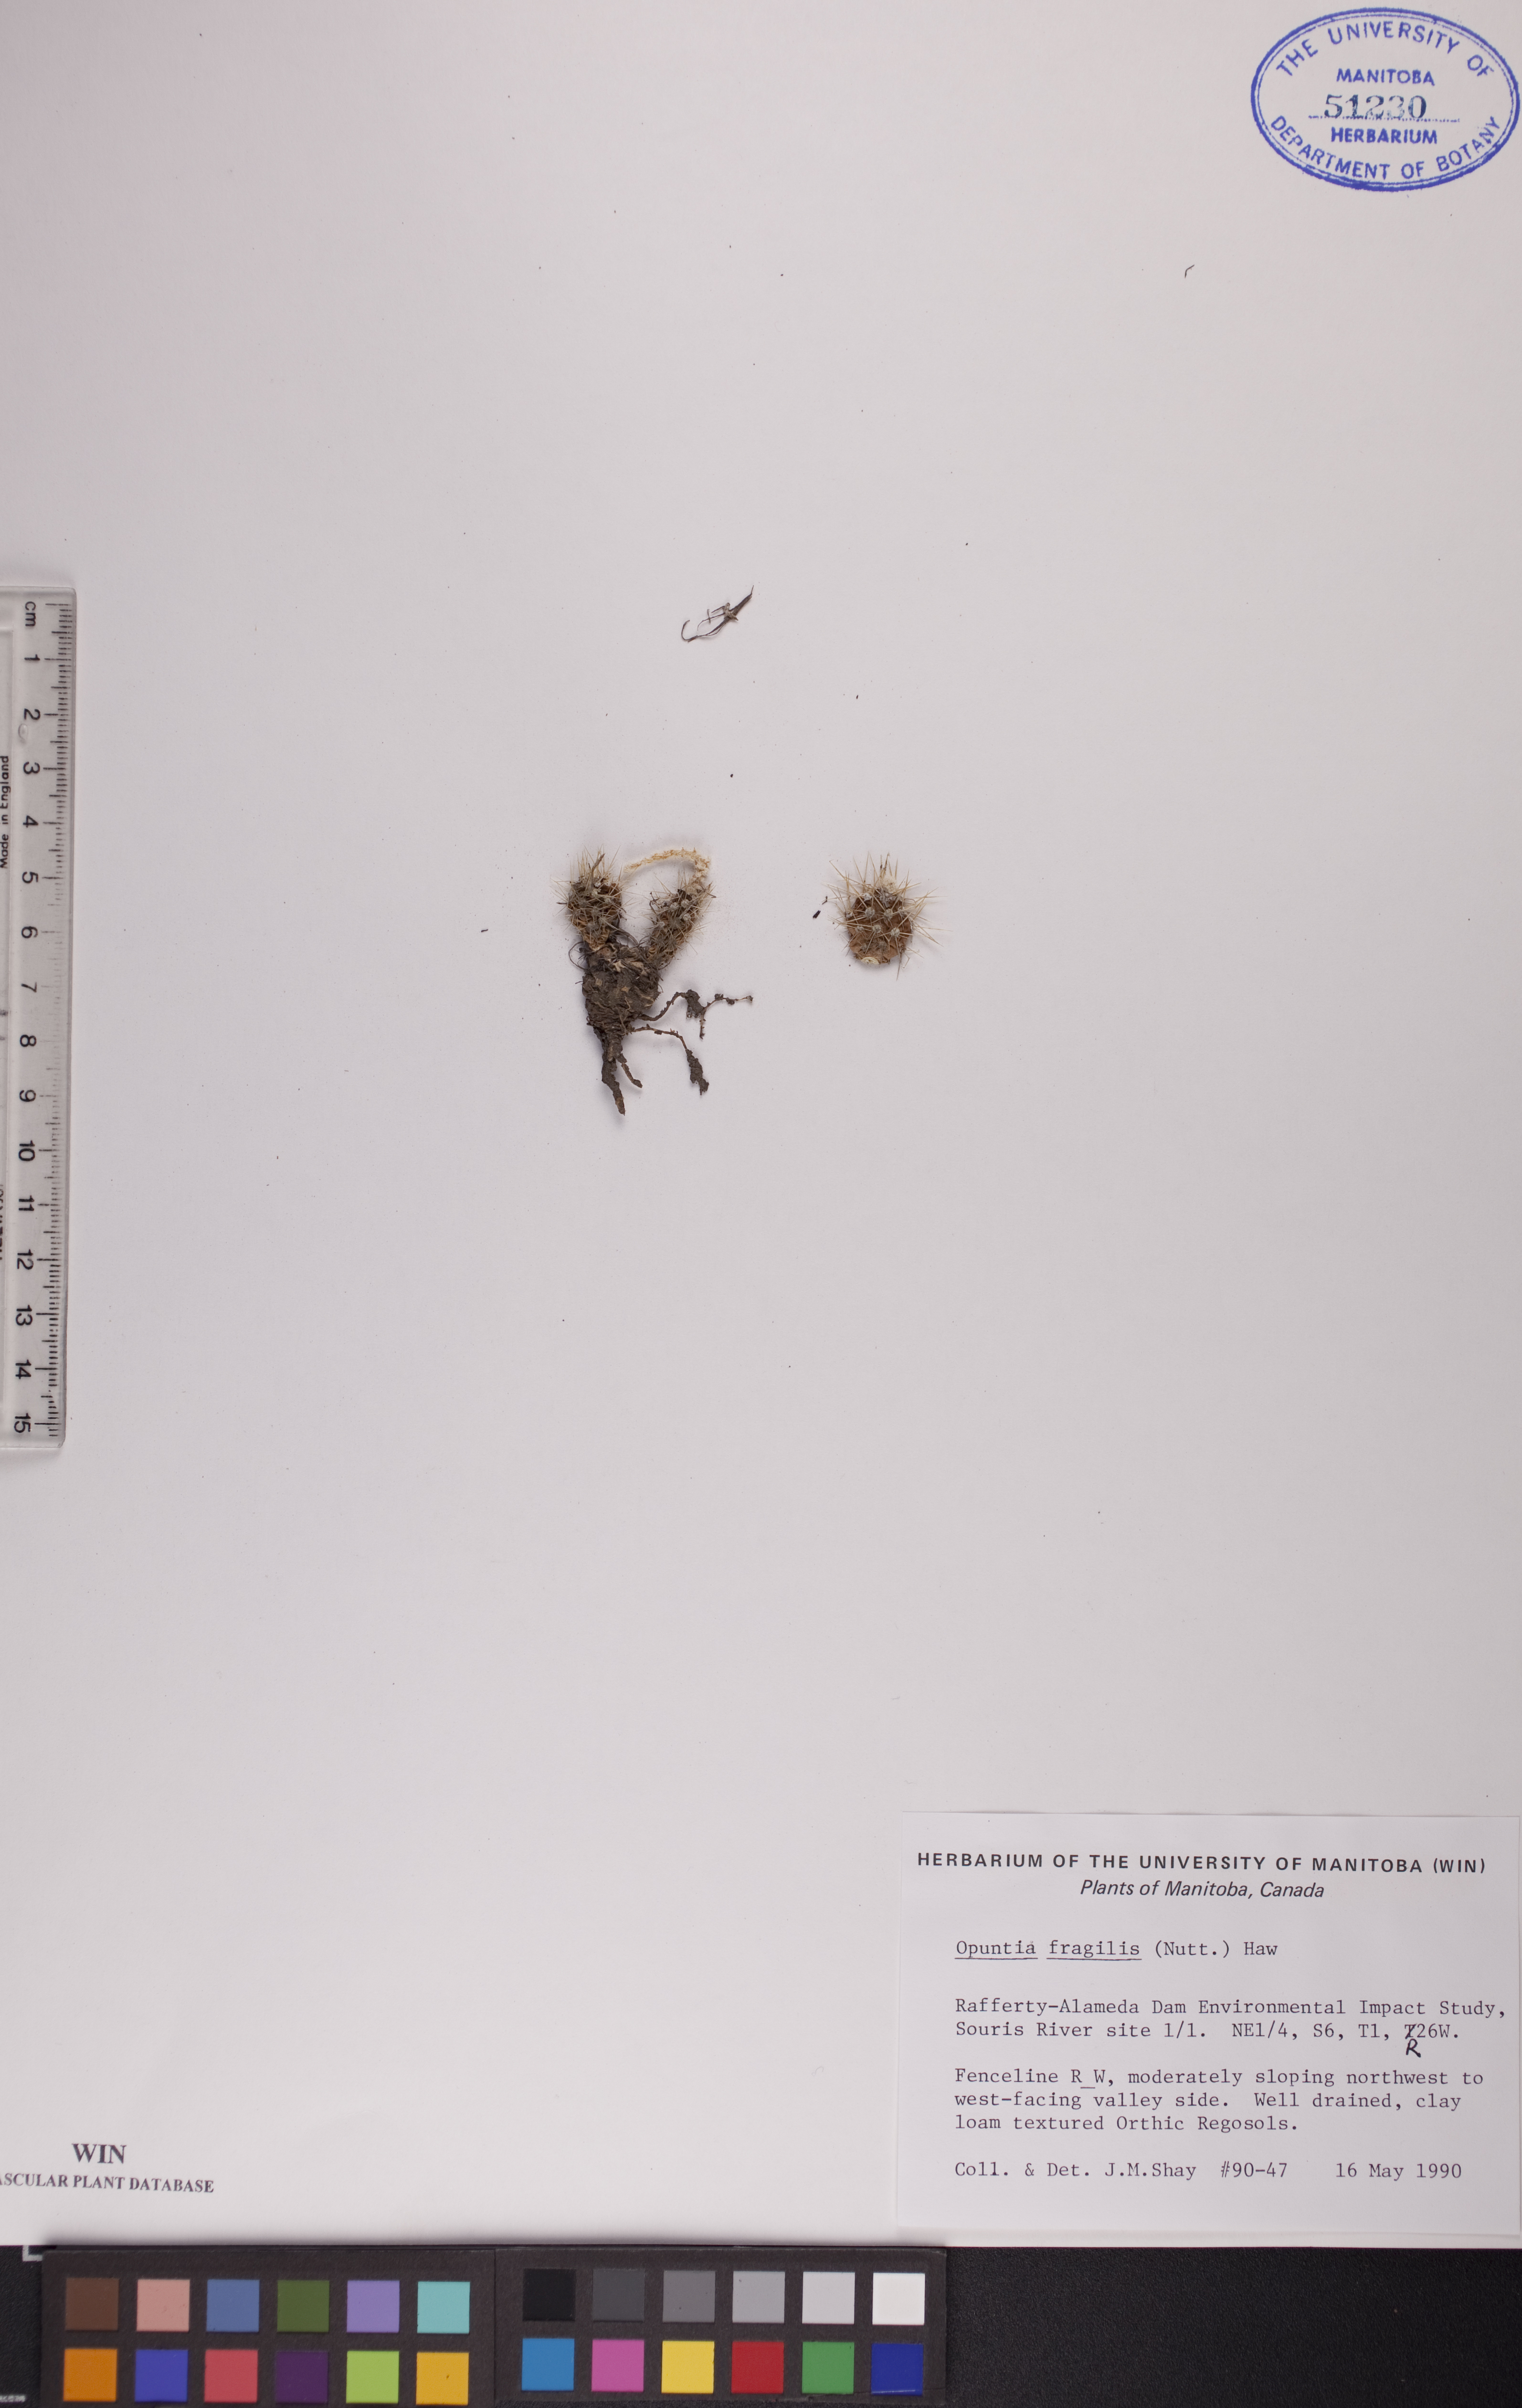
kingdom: Plantae
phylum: Tracheophyta
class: Magnoliopsida
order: Caryophyllales
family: Cactaceae
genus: Opuntia
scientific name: Opuntia fragilis
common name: Brittle cactus
